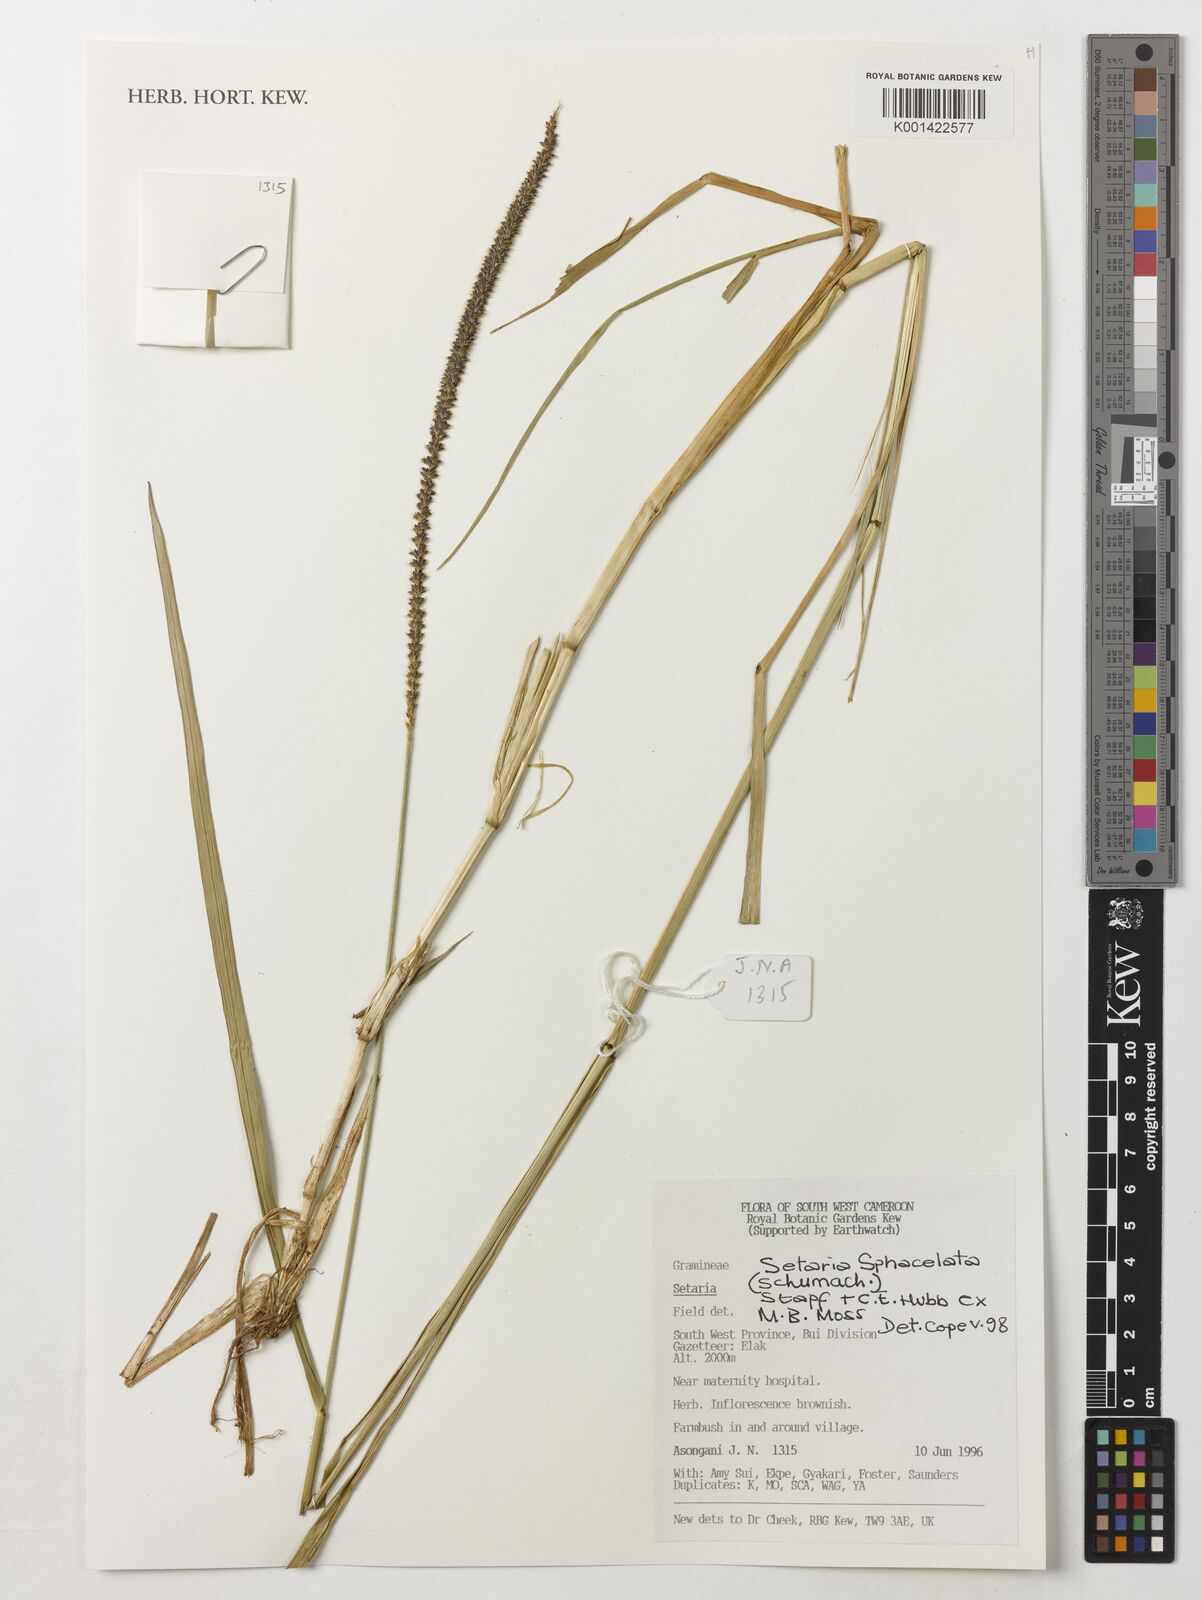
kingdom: Plantae
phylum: Tracheophyta
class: Liliopsida
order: Poales
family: Poaceae
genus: Setaria
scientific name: Setaria sphacelata
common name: African bristlegrass
